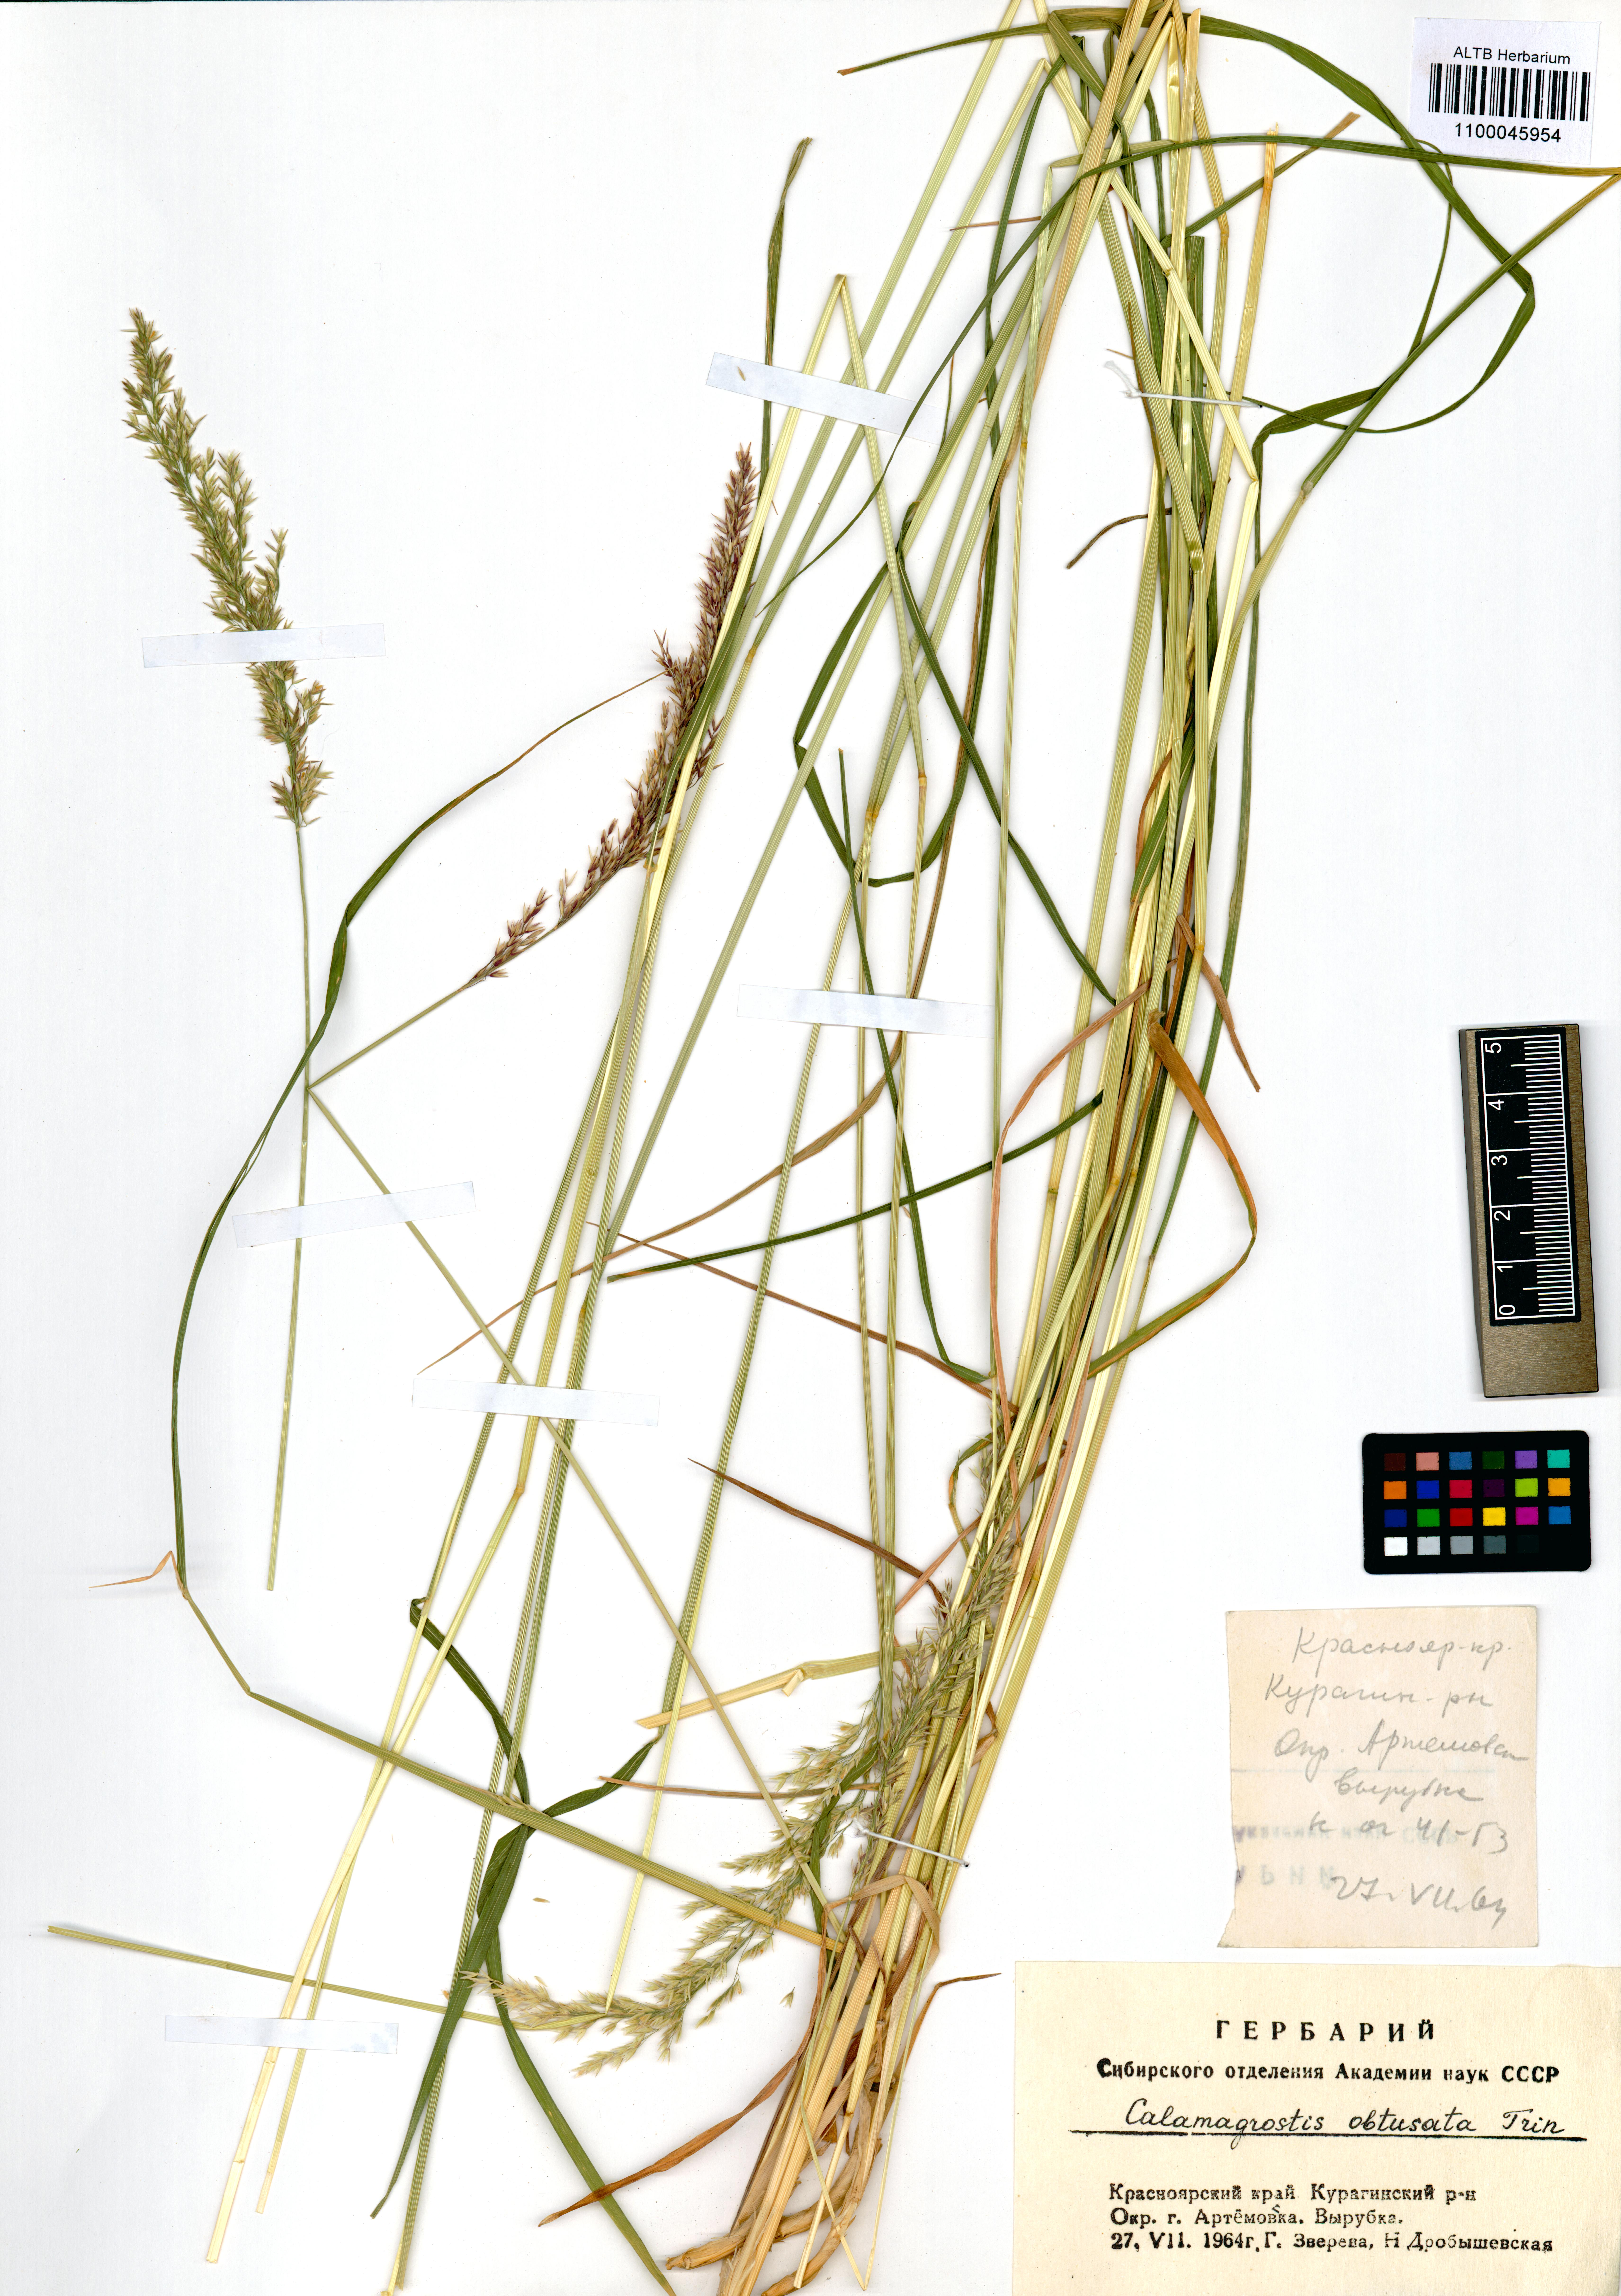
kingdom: Plantae
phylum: Tracheophyta
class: Liliopsida
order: Poales
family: Poaceae
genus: Calamagrostis
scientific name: Calamagrostis obtusata
